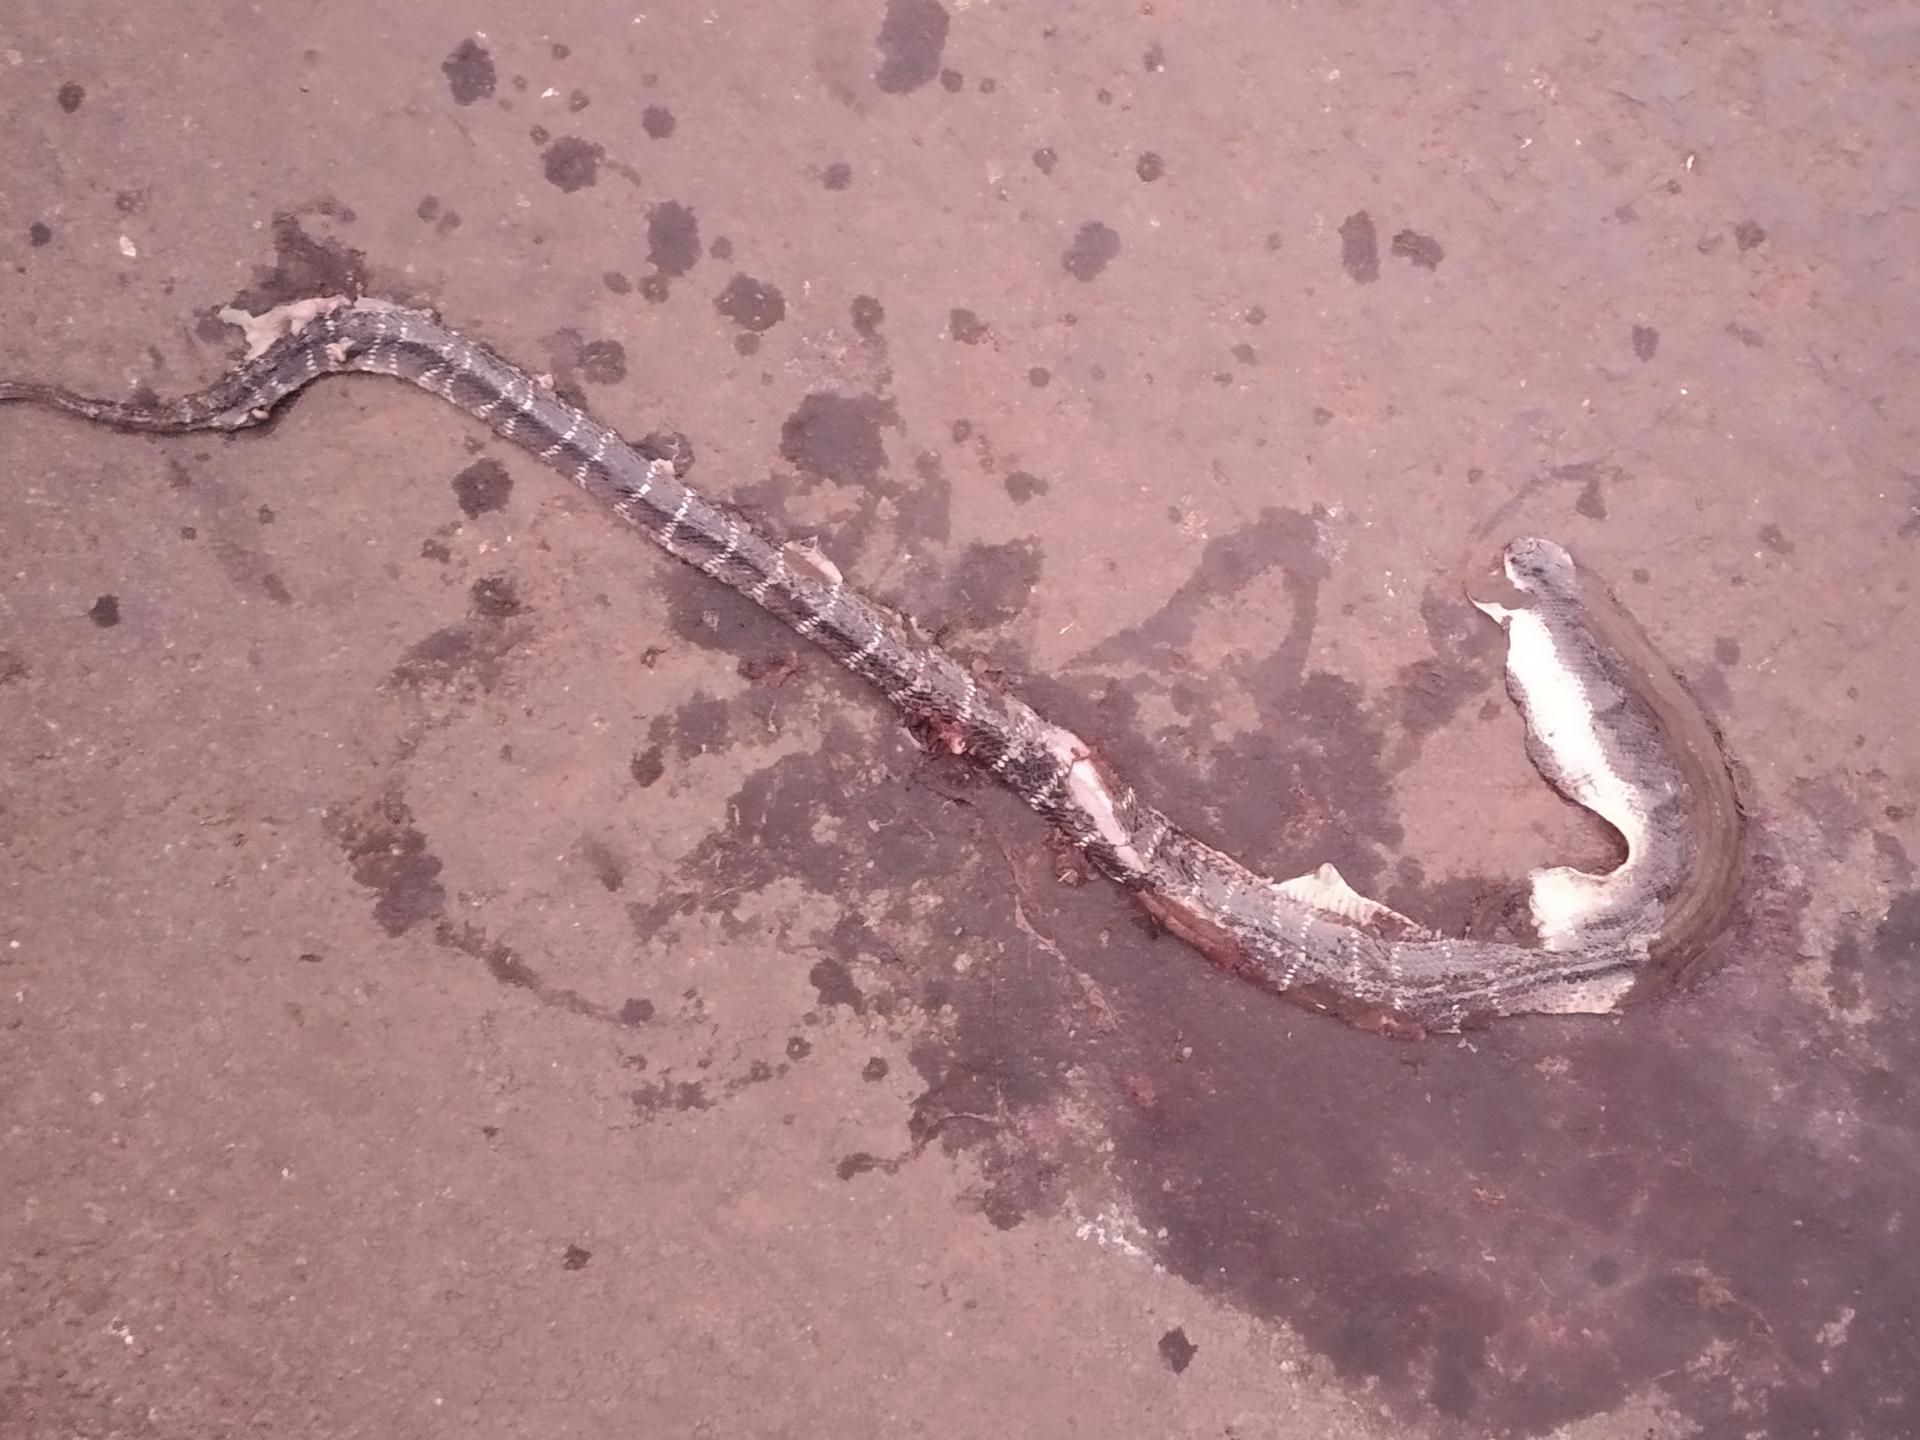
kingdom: Animalia
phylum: Chordata
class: Squamata
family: Elapidae
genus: Bungarus
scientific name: Bungarus caeruleus
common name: Common krait
